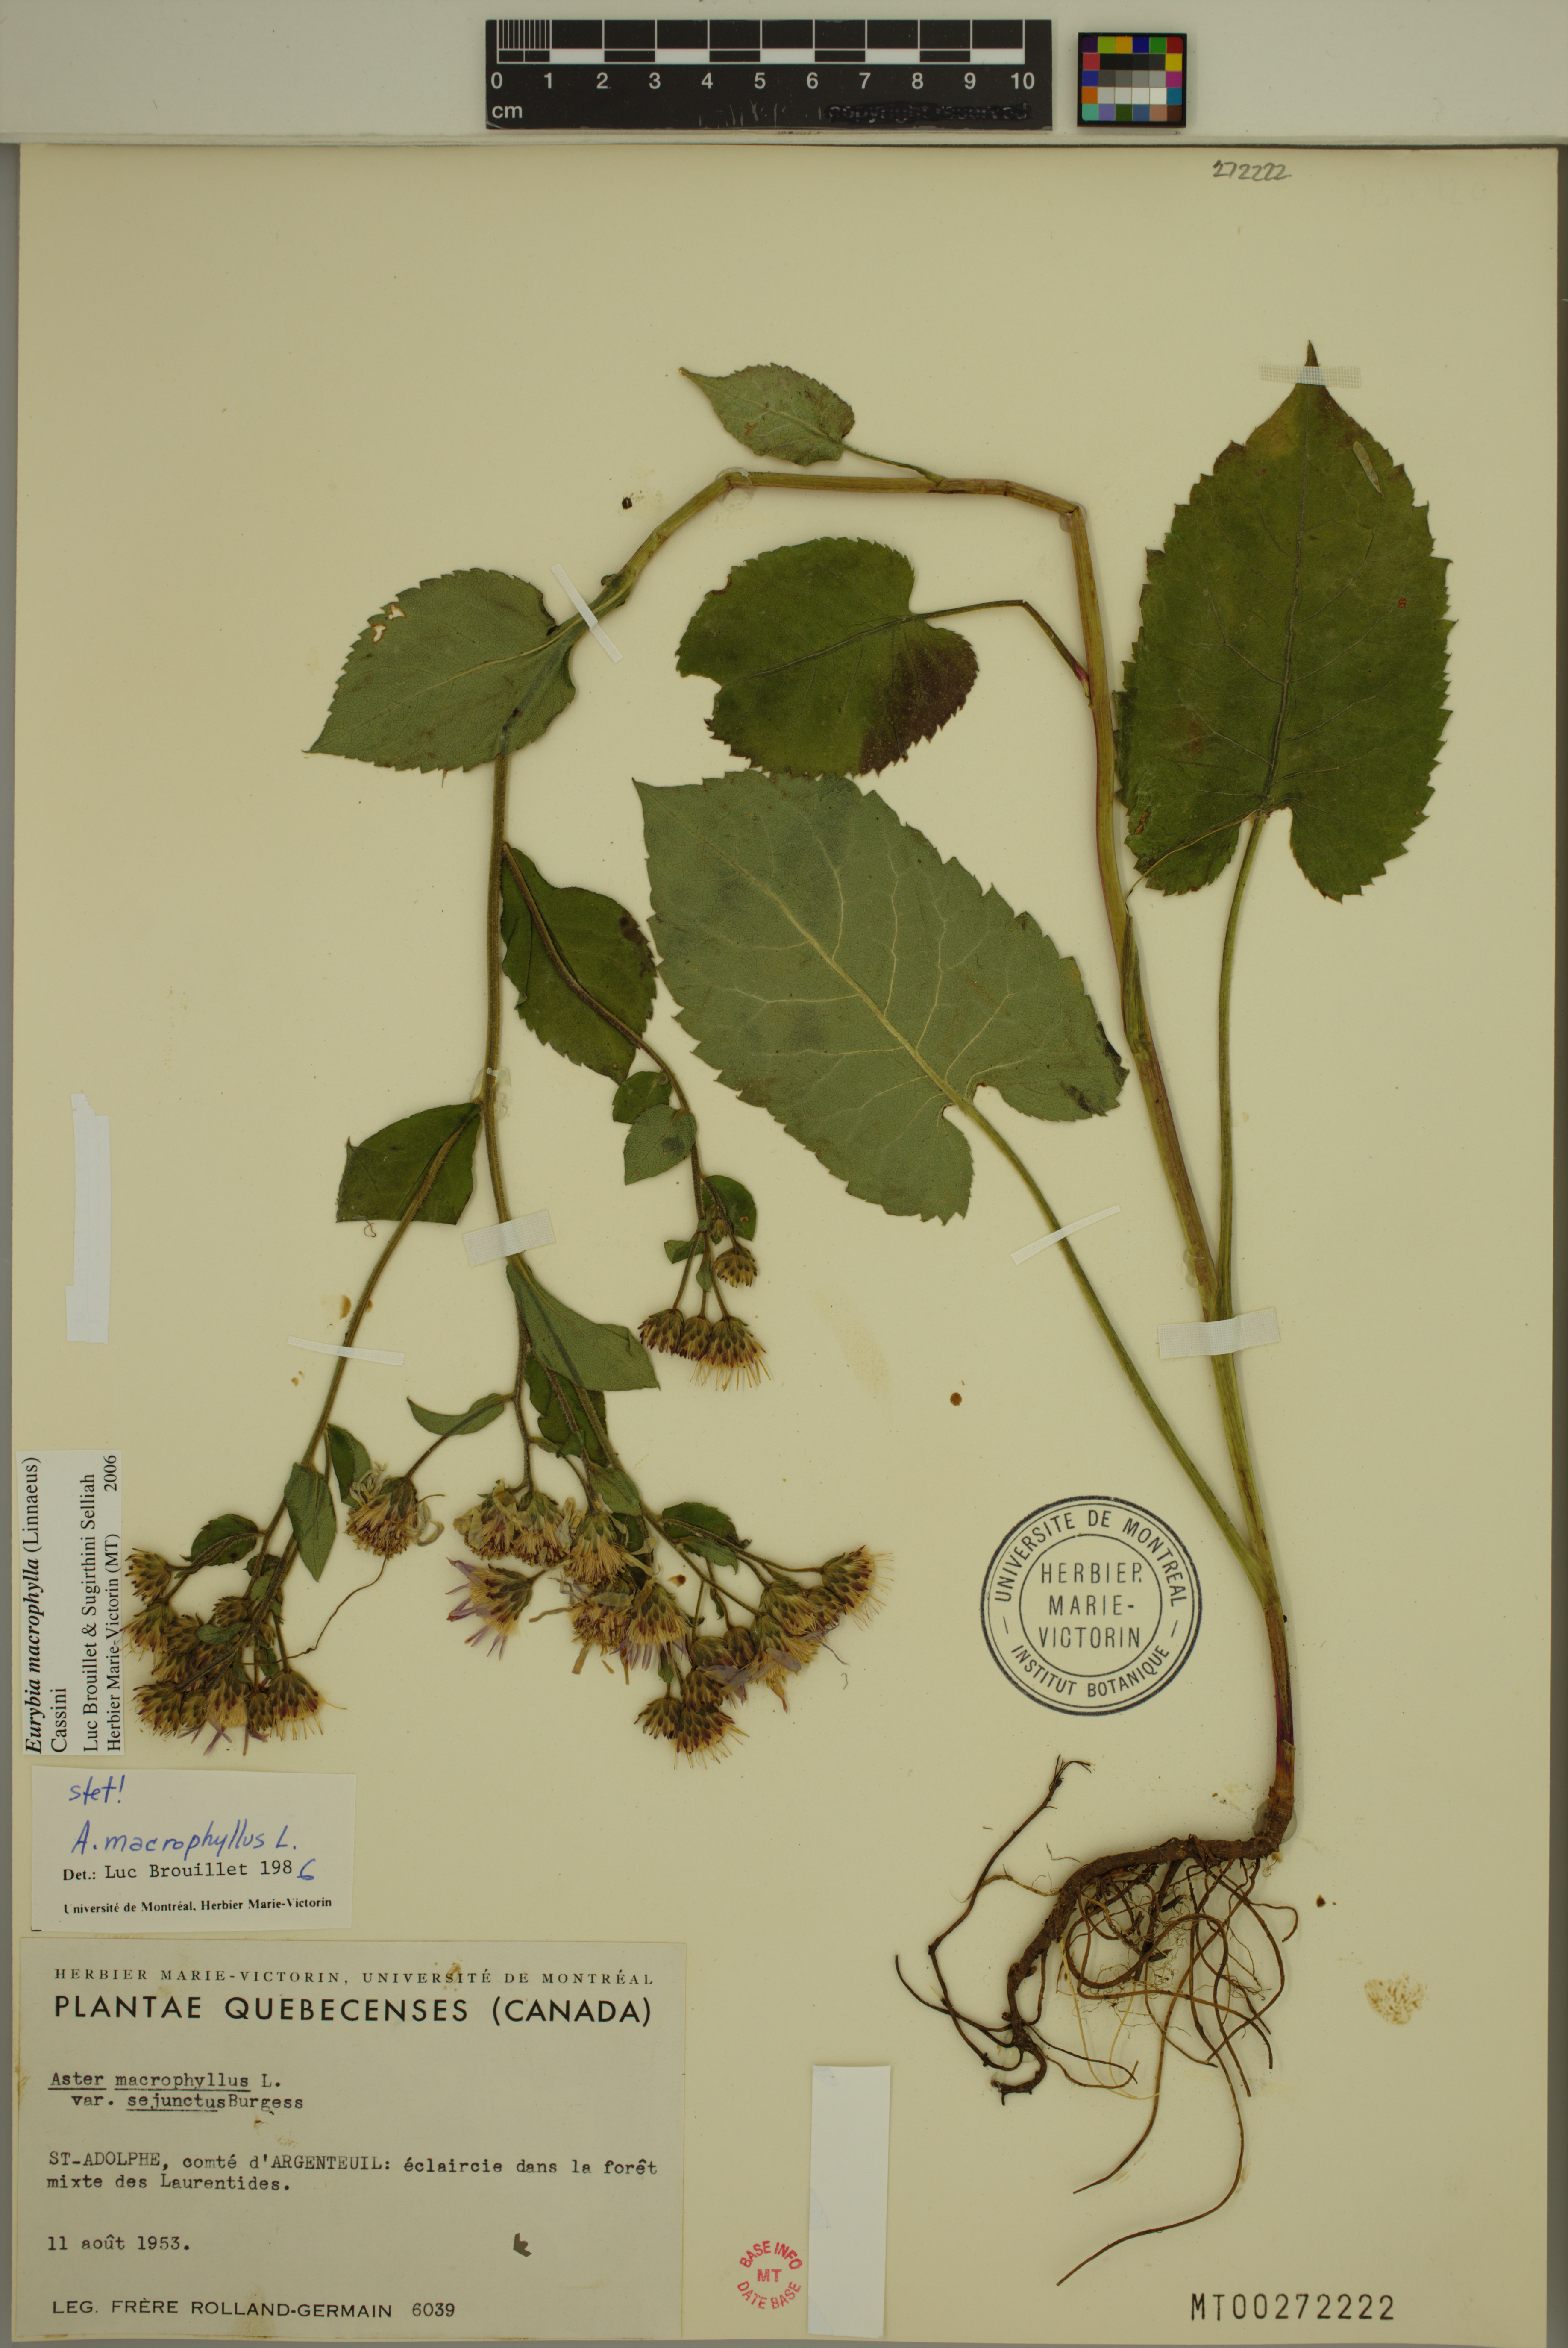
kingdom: Plantae
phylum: Tracheophyta
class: Magnoliopsida
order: Asterales
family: Asteraceae
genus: Eurybia
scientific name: Eurybia macrophylla
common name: Big-leaved aster
